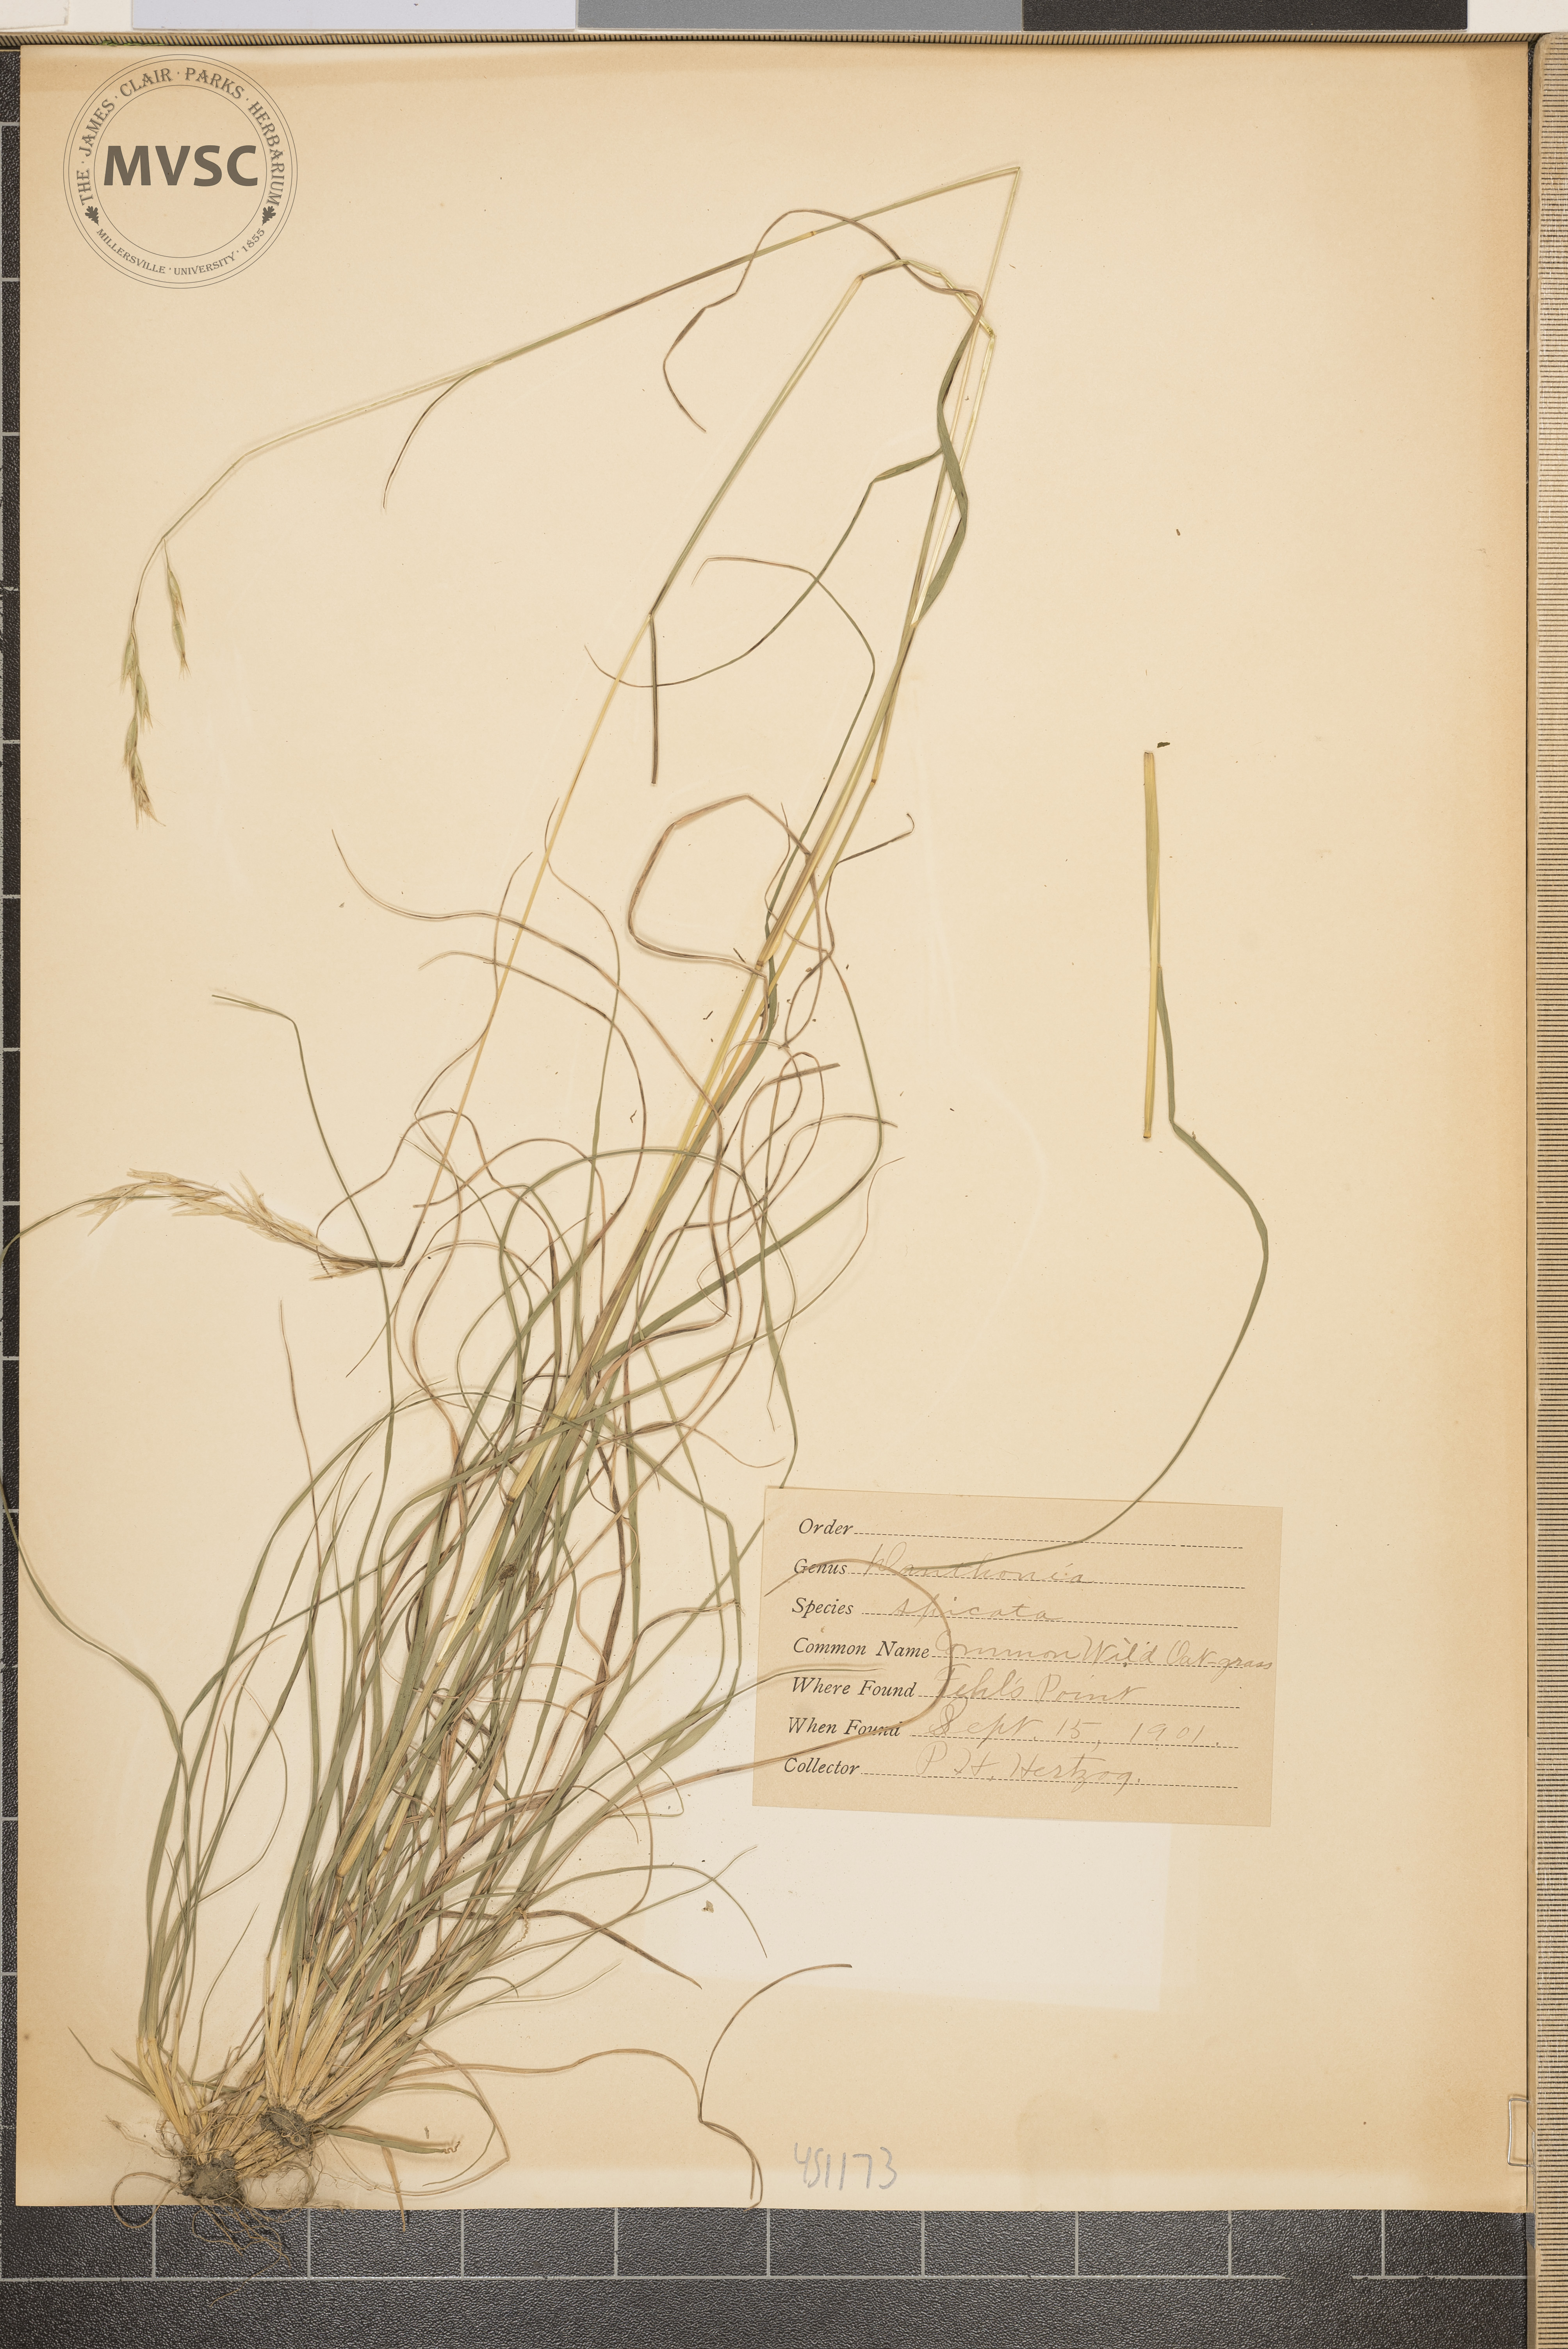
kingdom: Plantae
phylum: Tracheophyta
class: Liliopsida
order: Poales
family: Poaceae
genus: Danthonia
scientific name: Danthonia spicata
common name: Common wild oatgrass
